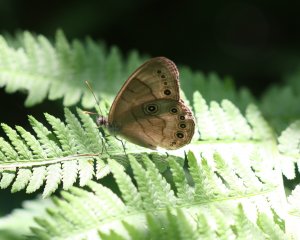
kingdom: Animalia
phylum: Arthropoda
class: Insecta
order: Lepidoptera
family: Nymphalidae
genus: Lethe
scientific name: Lethe eurydice
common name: Appalachian Eyed Brown
